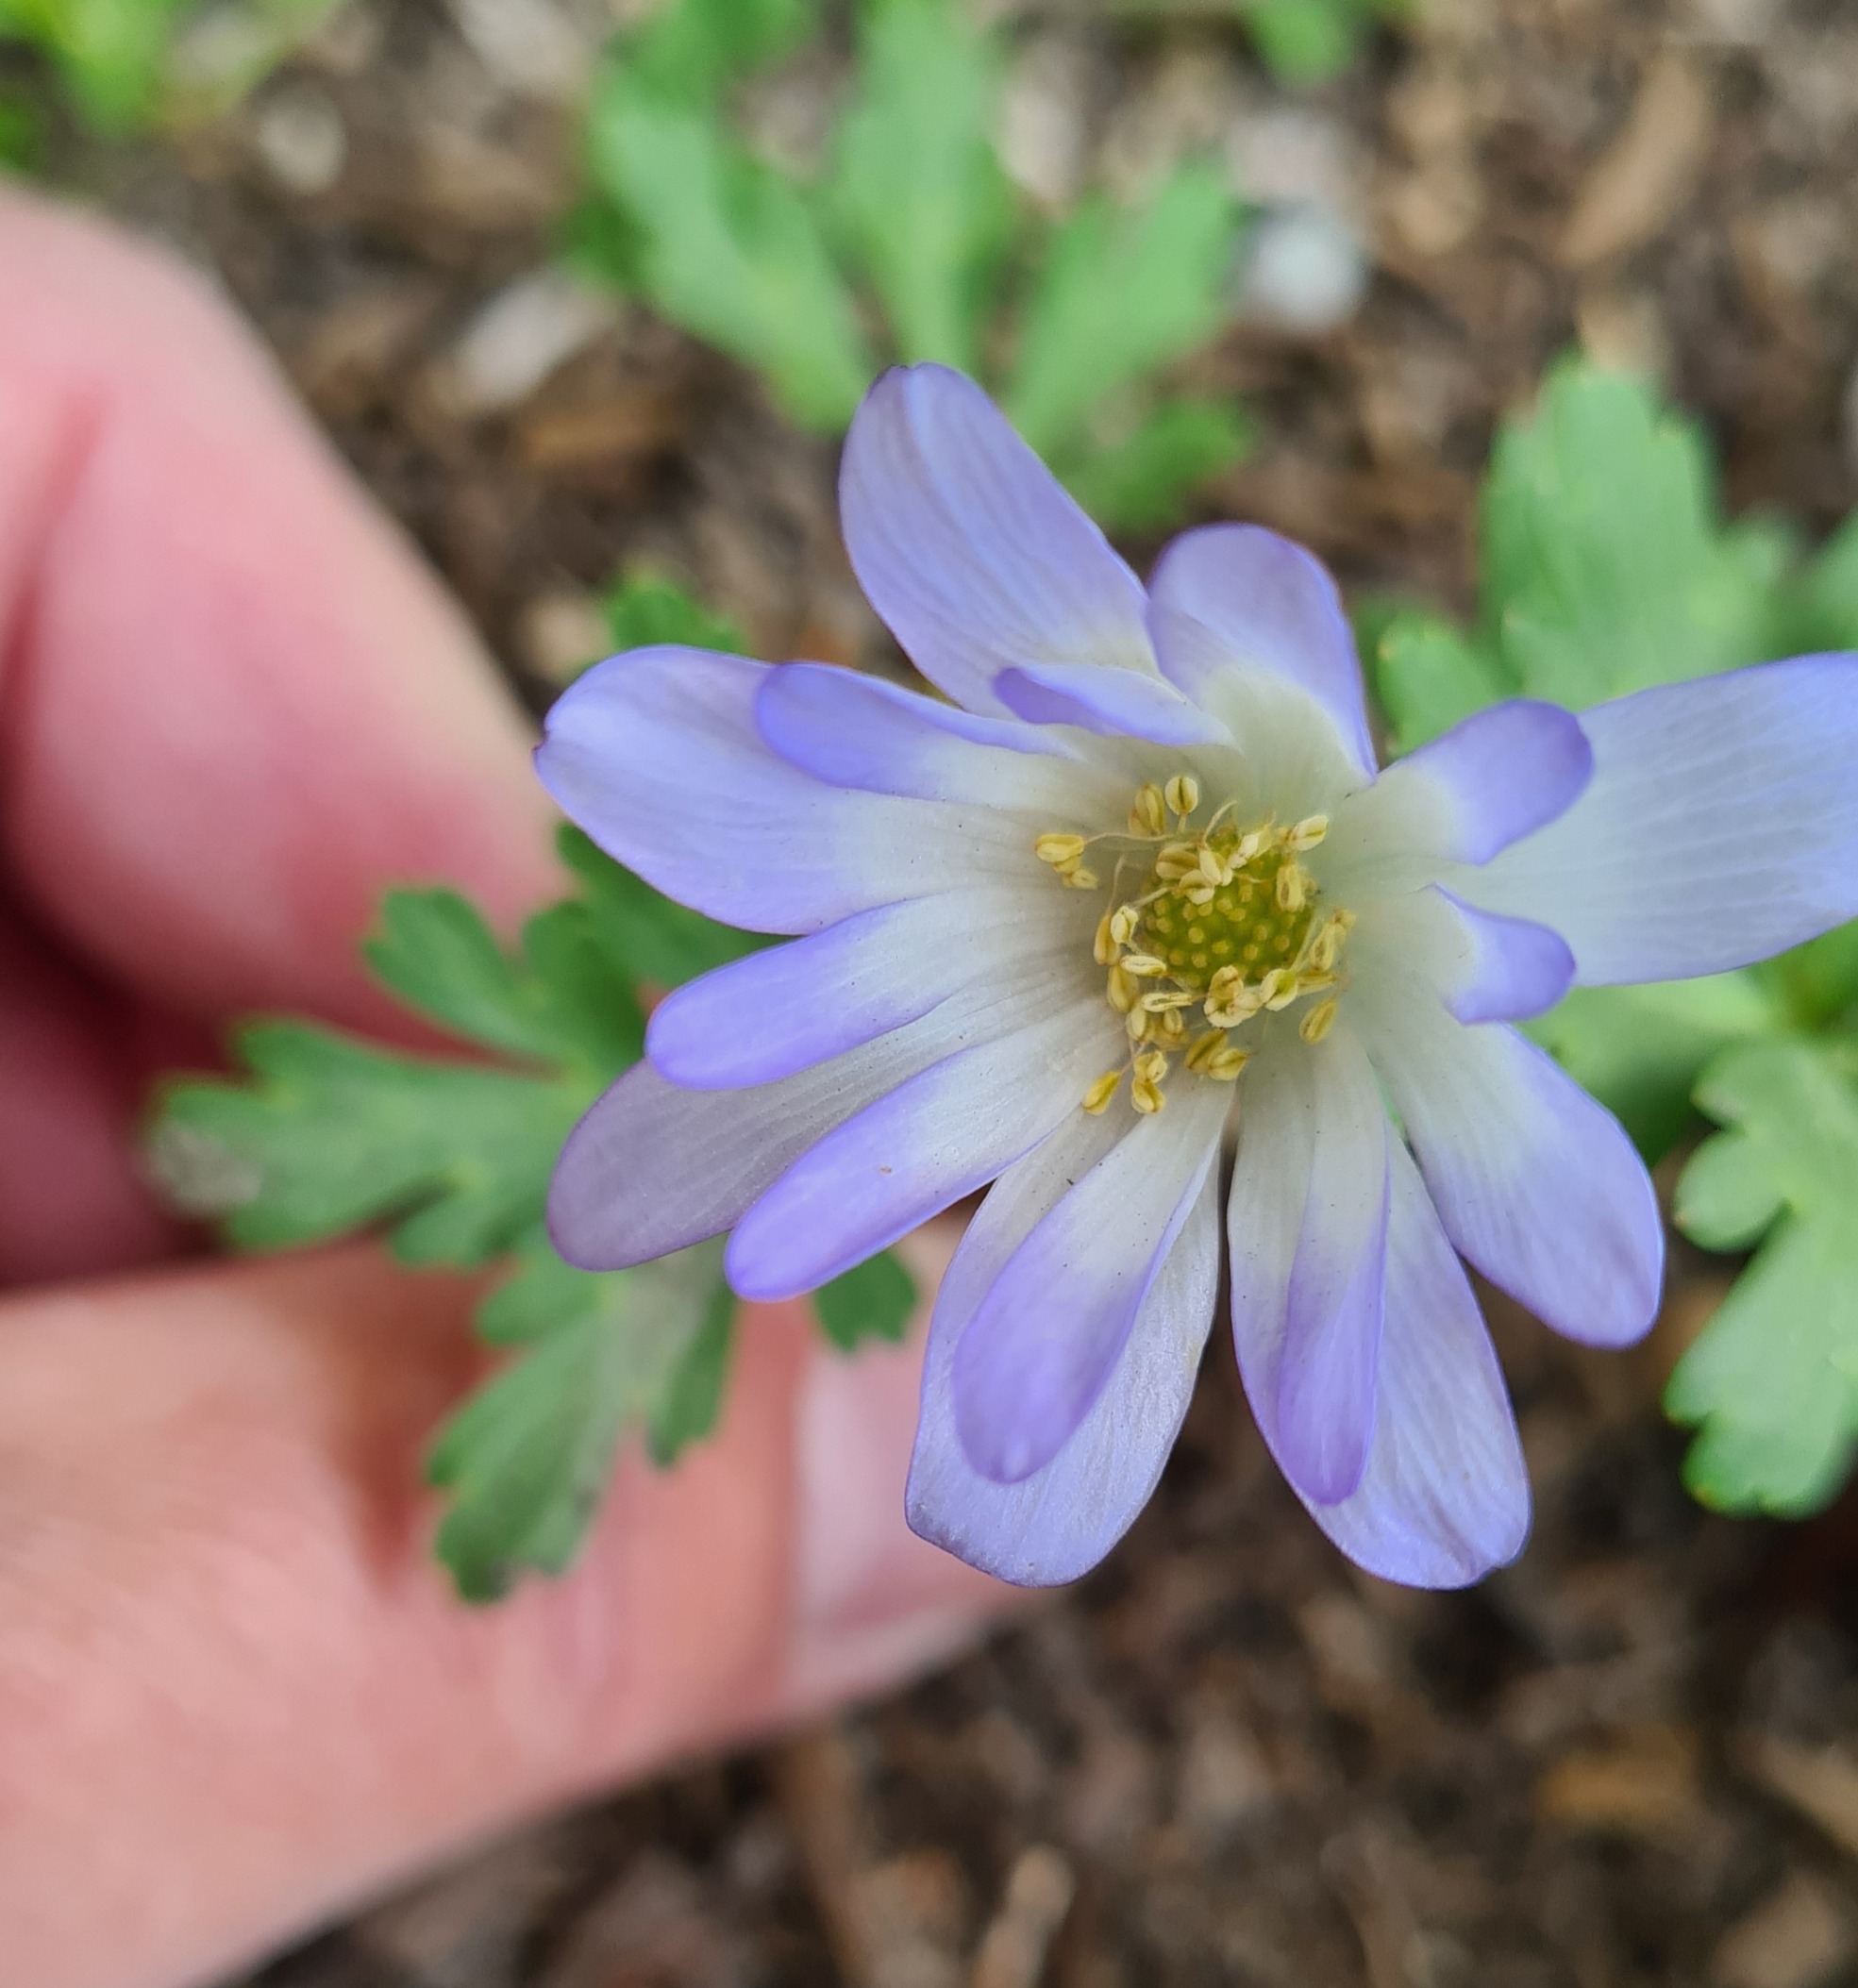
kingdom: Plantae
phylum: Tracheophyta
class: Magnoliopsida
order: Ranunculales
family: Ranunculaceae
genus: Anemone
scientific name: Anemone blanda
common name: Balkan-anemone
